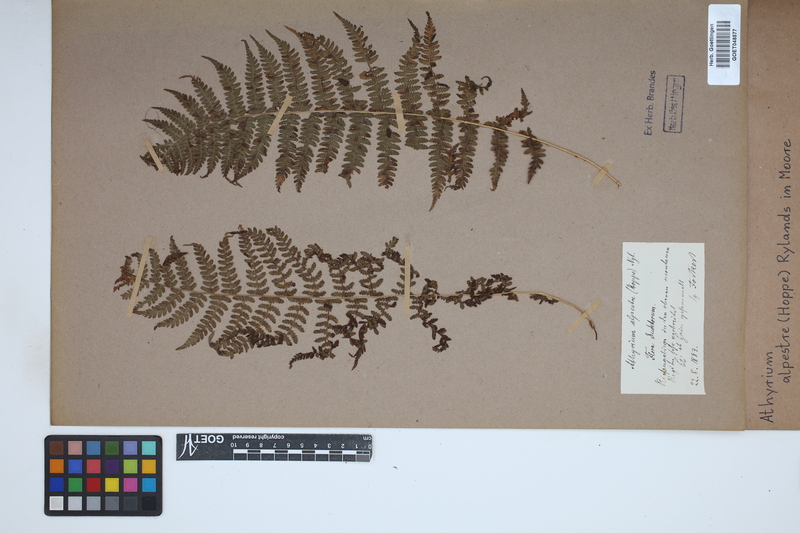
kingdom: Plantae
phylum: Tracheophyta
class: Polypodiopsida
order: Polypodiales
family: Athyriaceae
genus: Pseudathyrium
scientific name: Pseudathyrium alpestre
